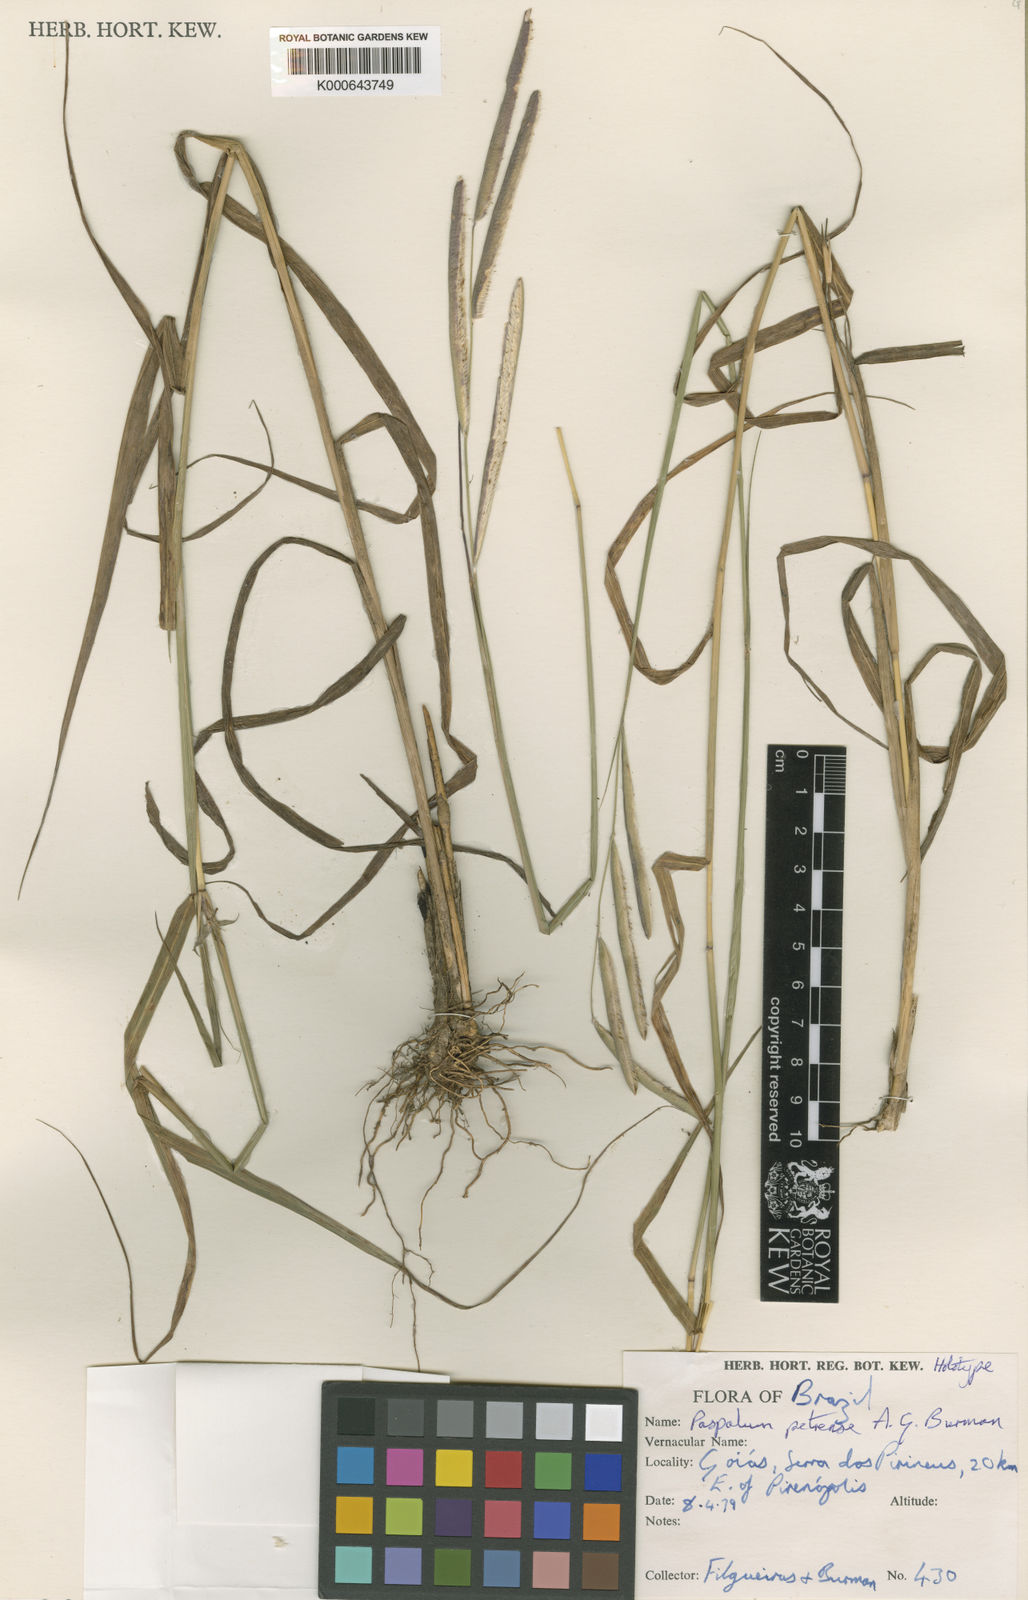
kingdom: Plantae
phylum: Tracheophyta
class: Liliopsida
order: Poales
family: Poaceae
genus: Paspalum
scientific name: Paspalum petrense
